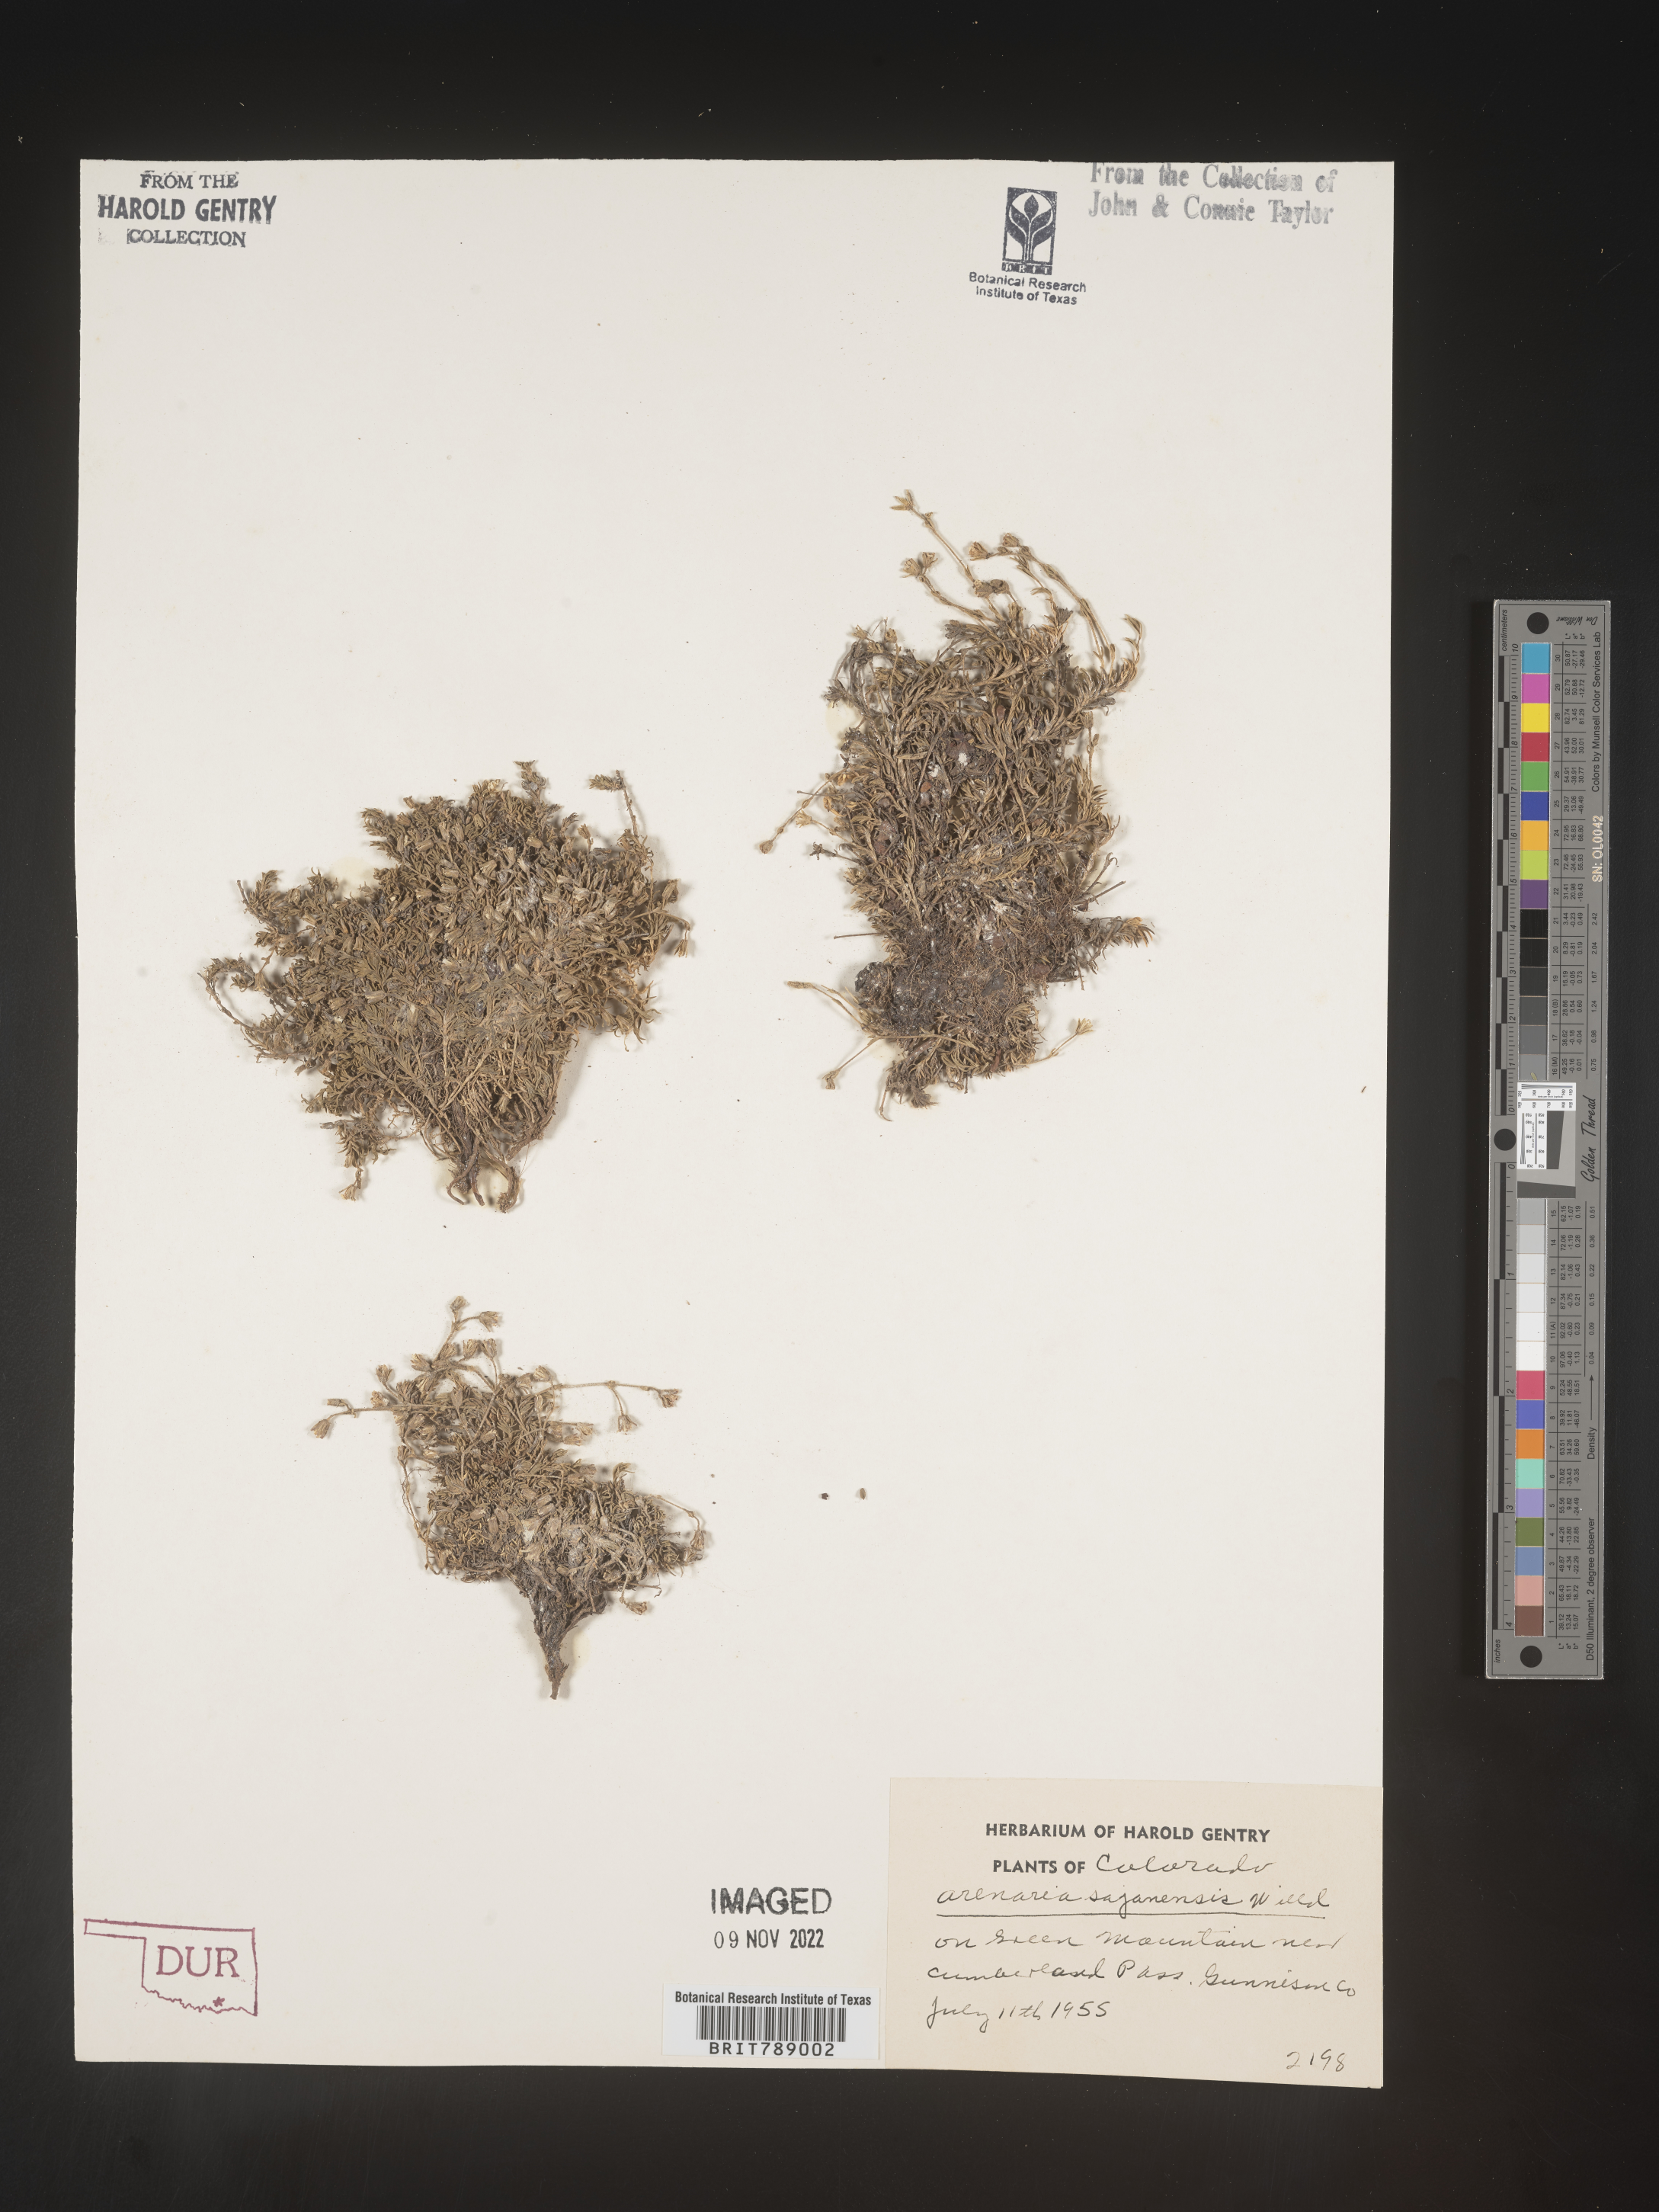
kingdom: Plantae
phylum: Tracheophyta
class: Magnoliopsida
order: Caryophyllales
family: Caryophyllaceae
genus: Arenaria
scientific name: Arenaria
